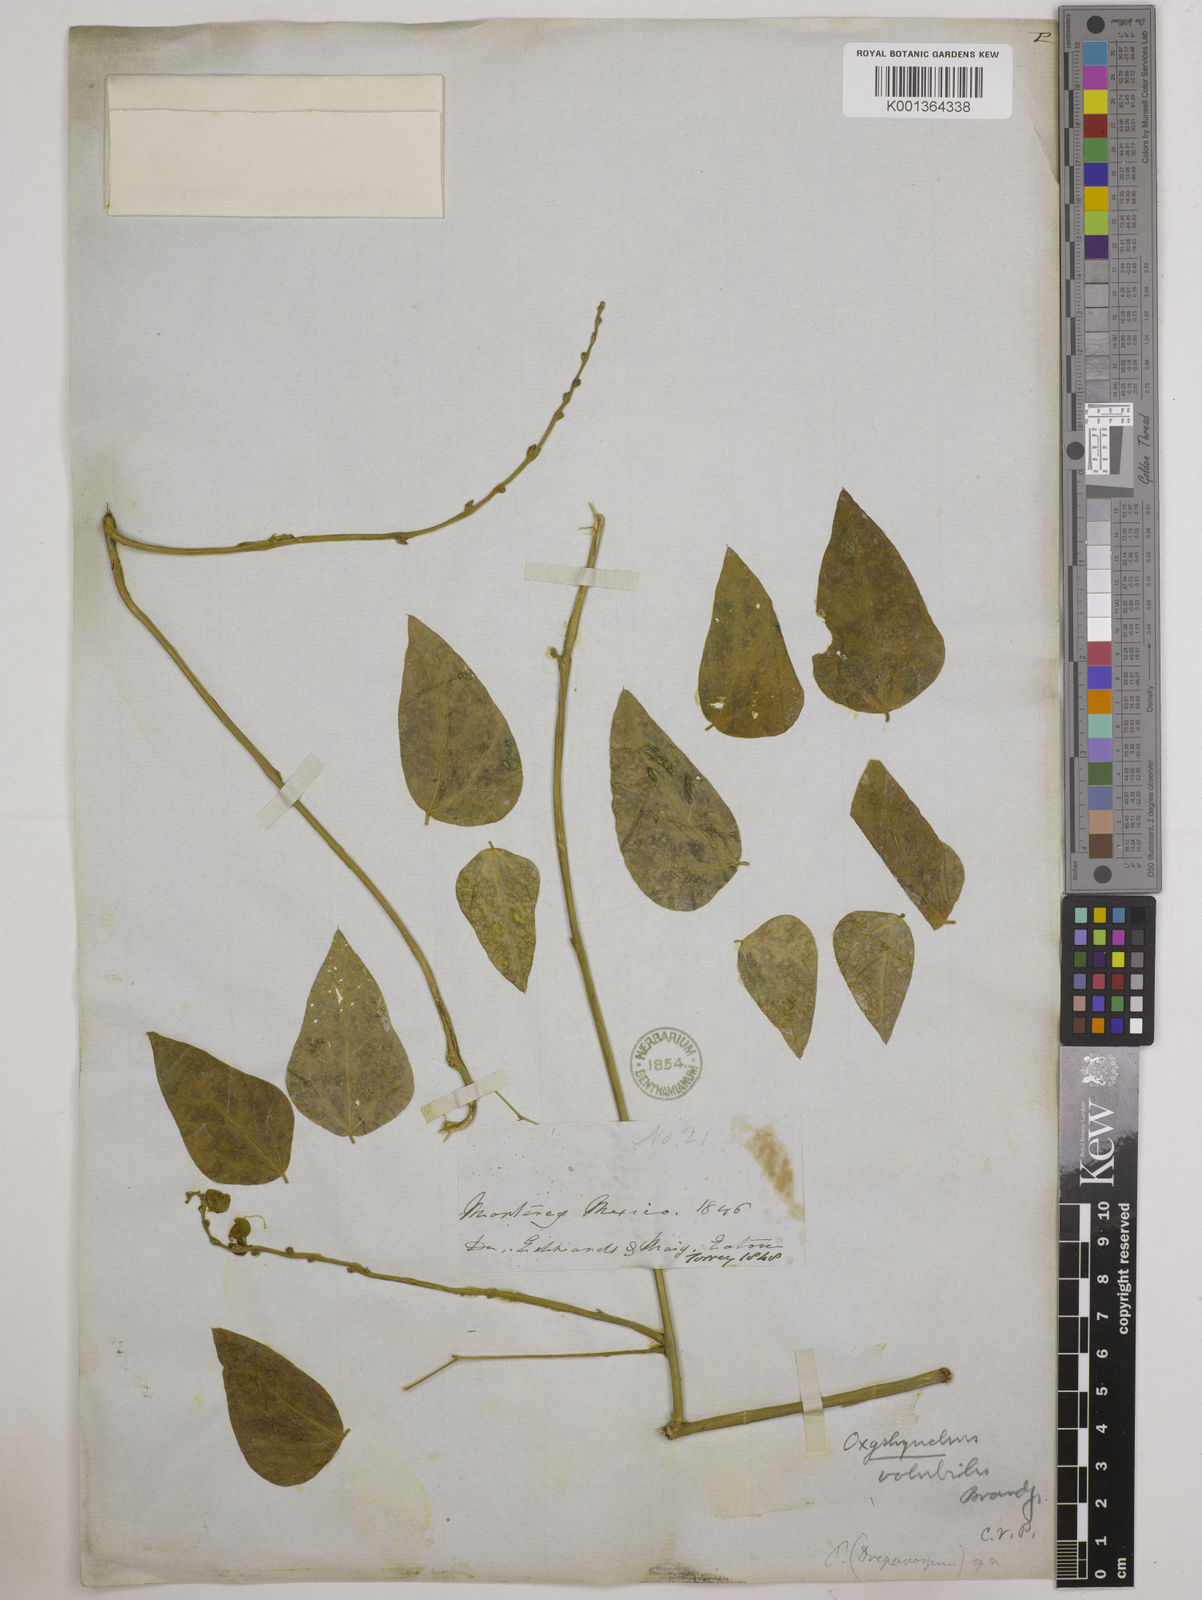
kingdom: Plantae
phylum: Tracheophyta
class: Magnoliopsida
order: Fabales
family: Fabaceae
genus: Oxyrhynchus
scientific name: Oxyrhynchus volubilis
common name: Twining bluehood
